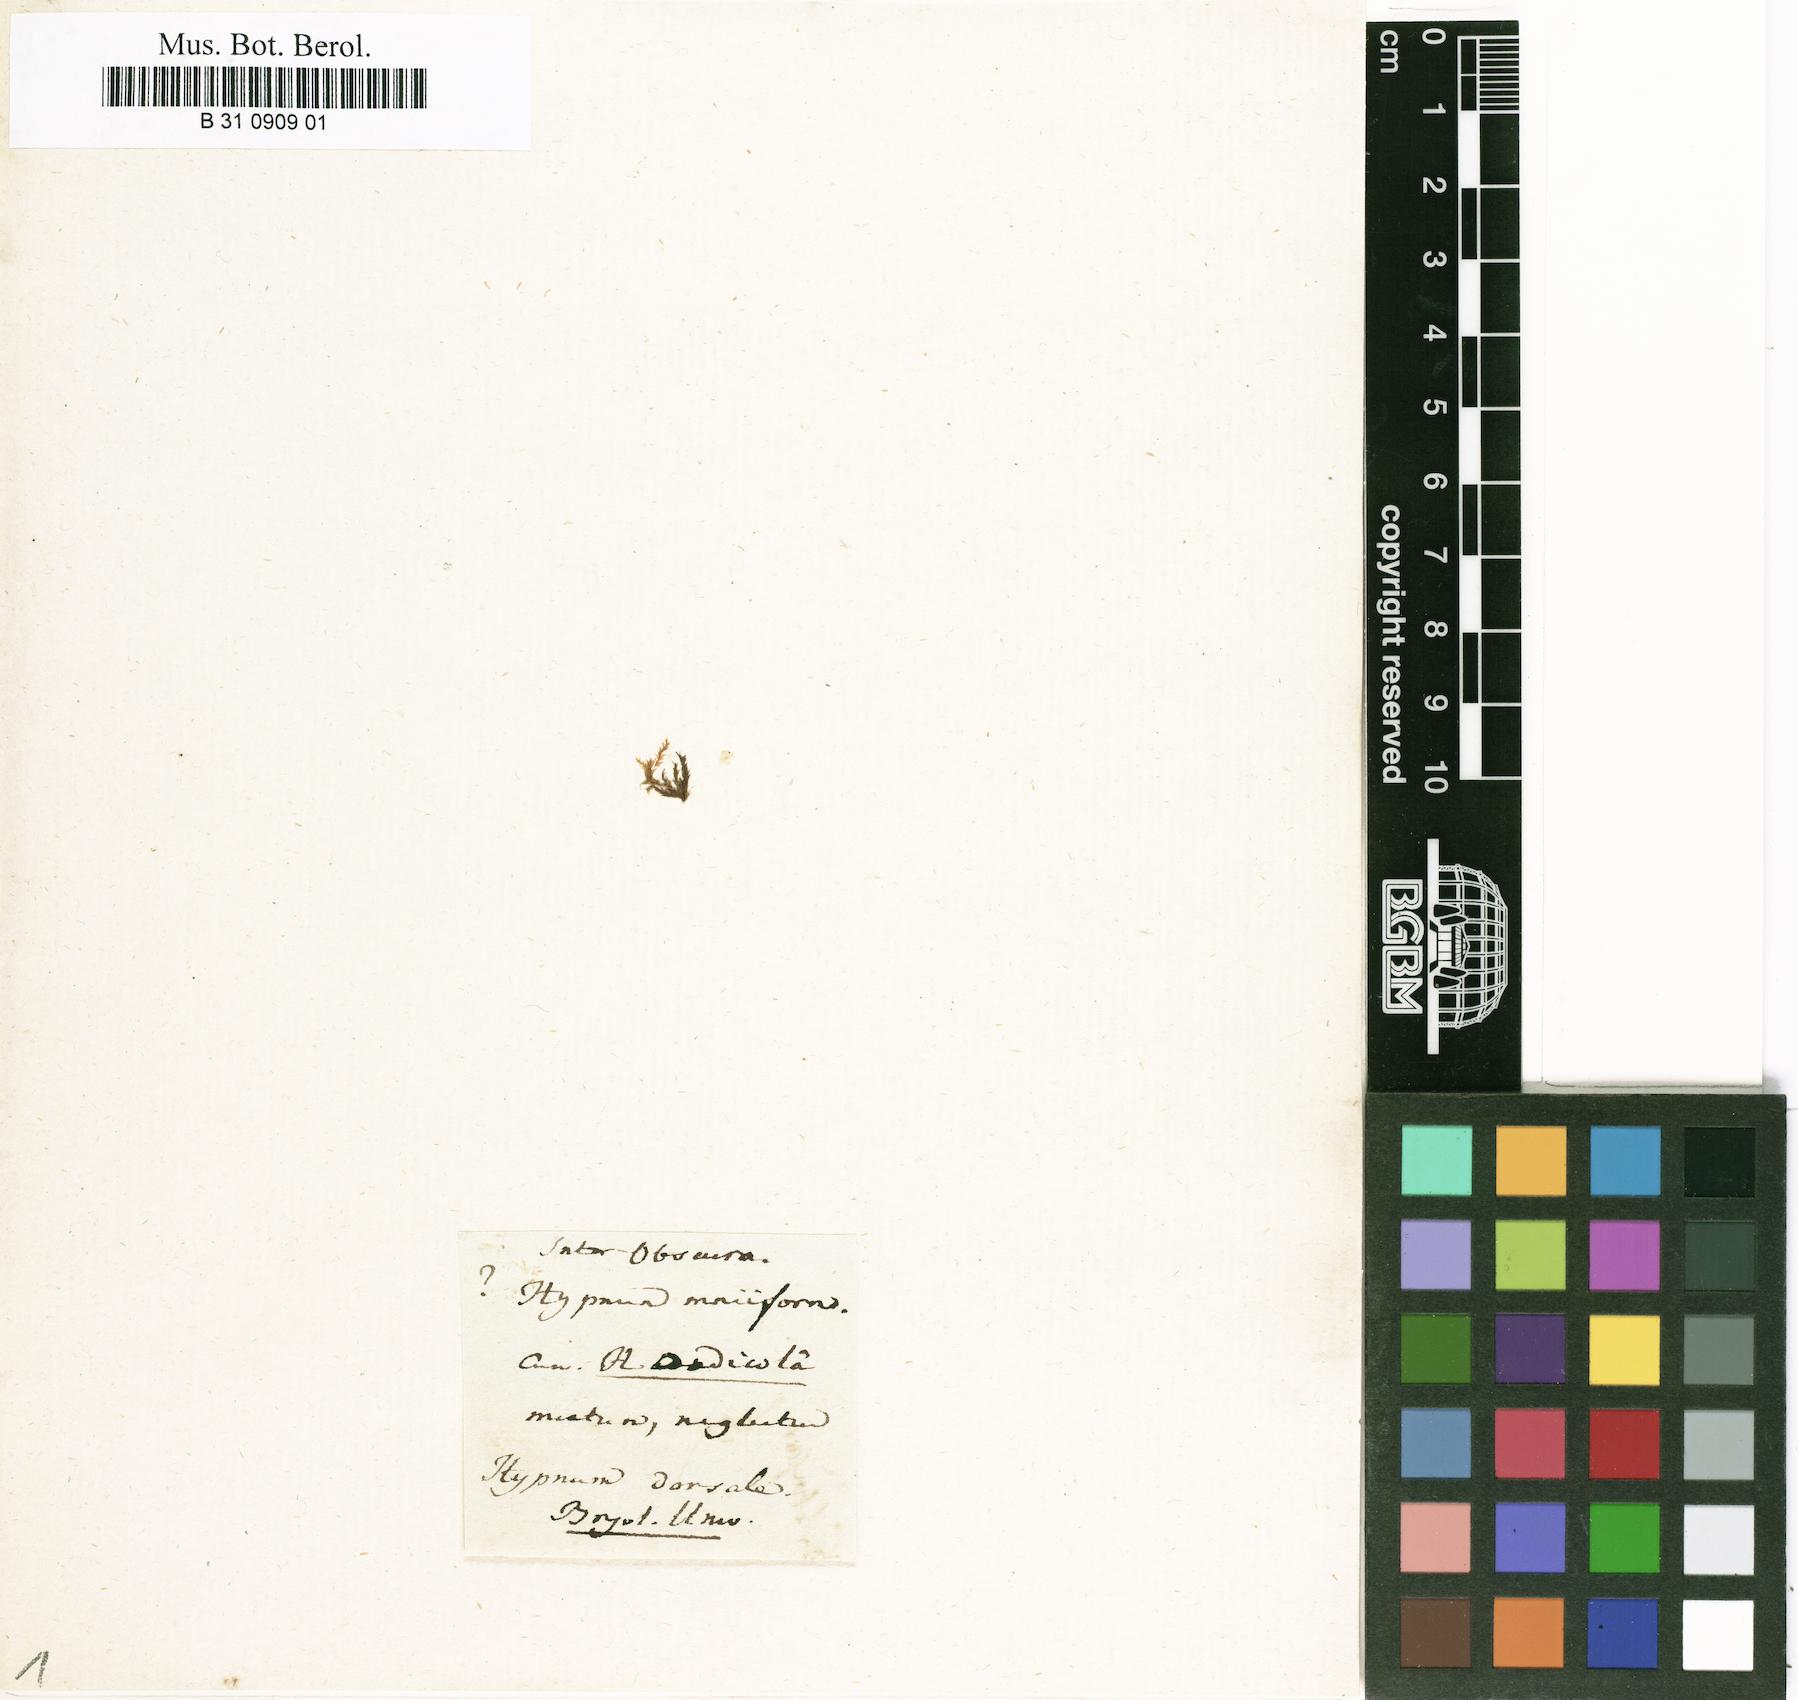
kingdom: Plantae
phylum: Bryophyta
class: Bryopsida
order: Hypnales
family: Hypnaceae
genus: Hypnum
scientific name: Hypnum dorsale
